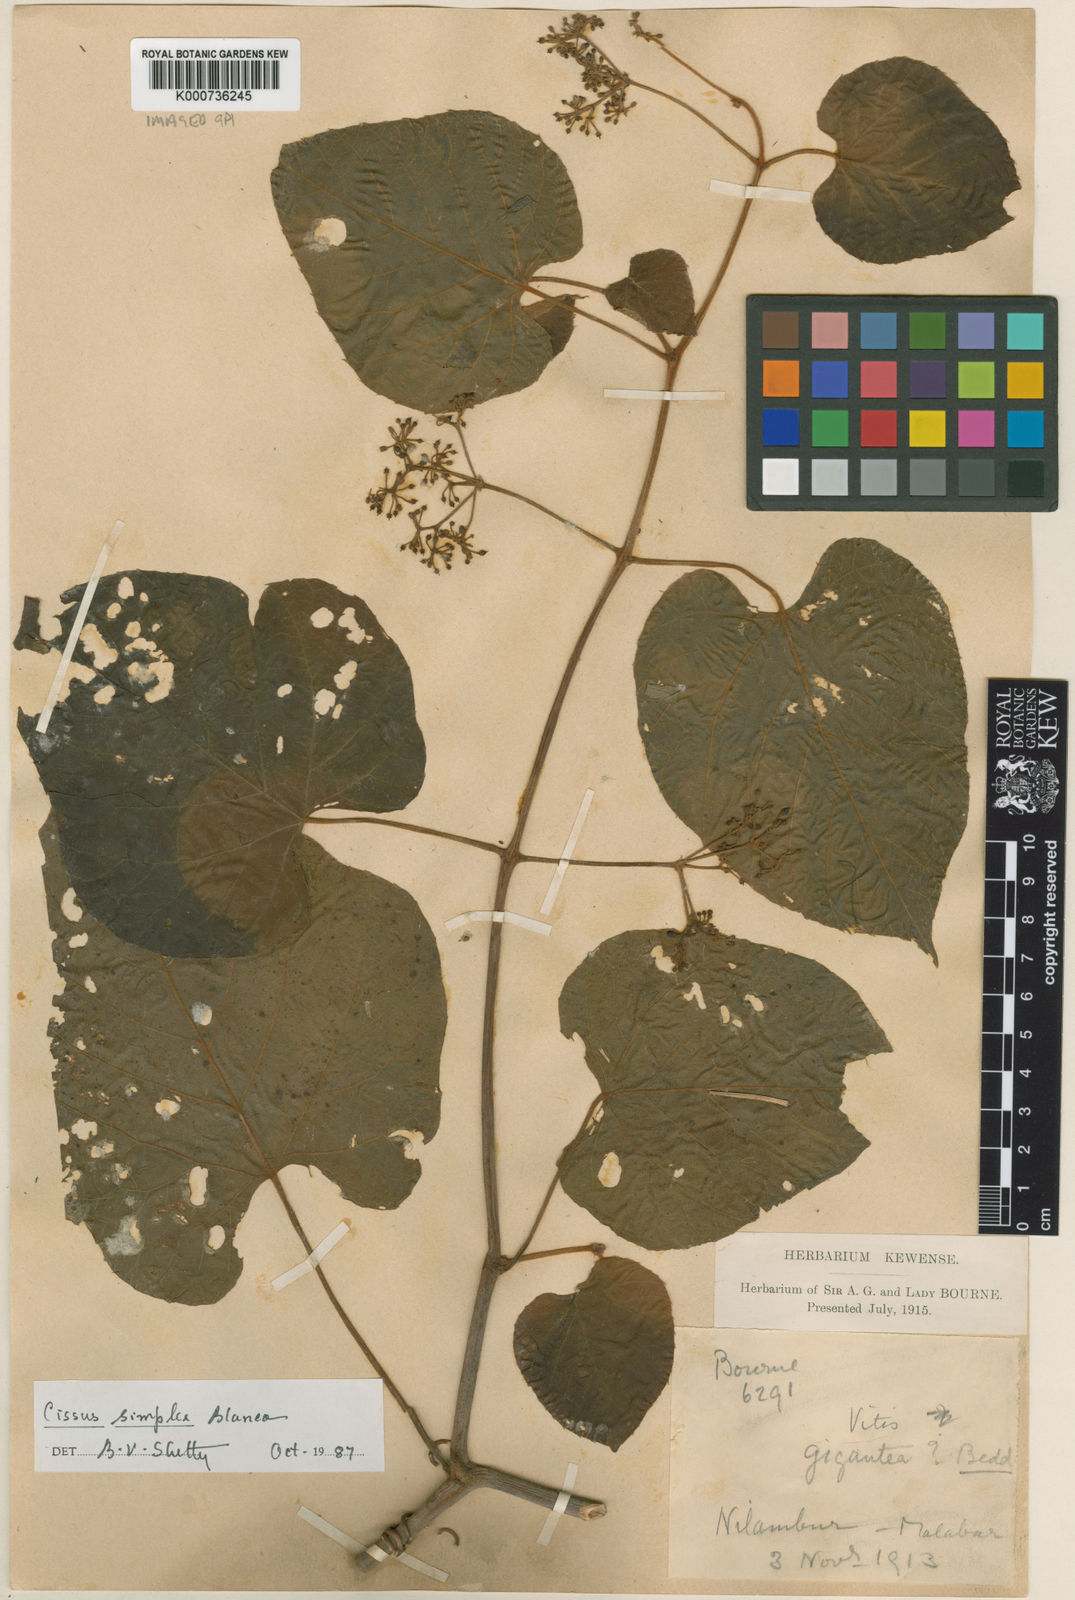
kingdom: Plantae
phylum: Tracheophyta
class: Magnoliopsida
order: Vitales
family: Vitaceae
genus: Cissus
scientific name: Cissus
